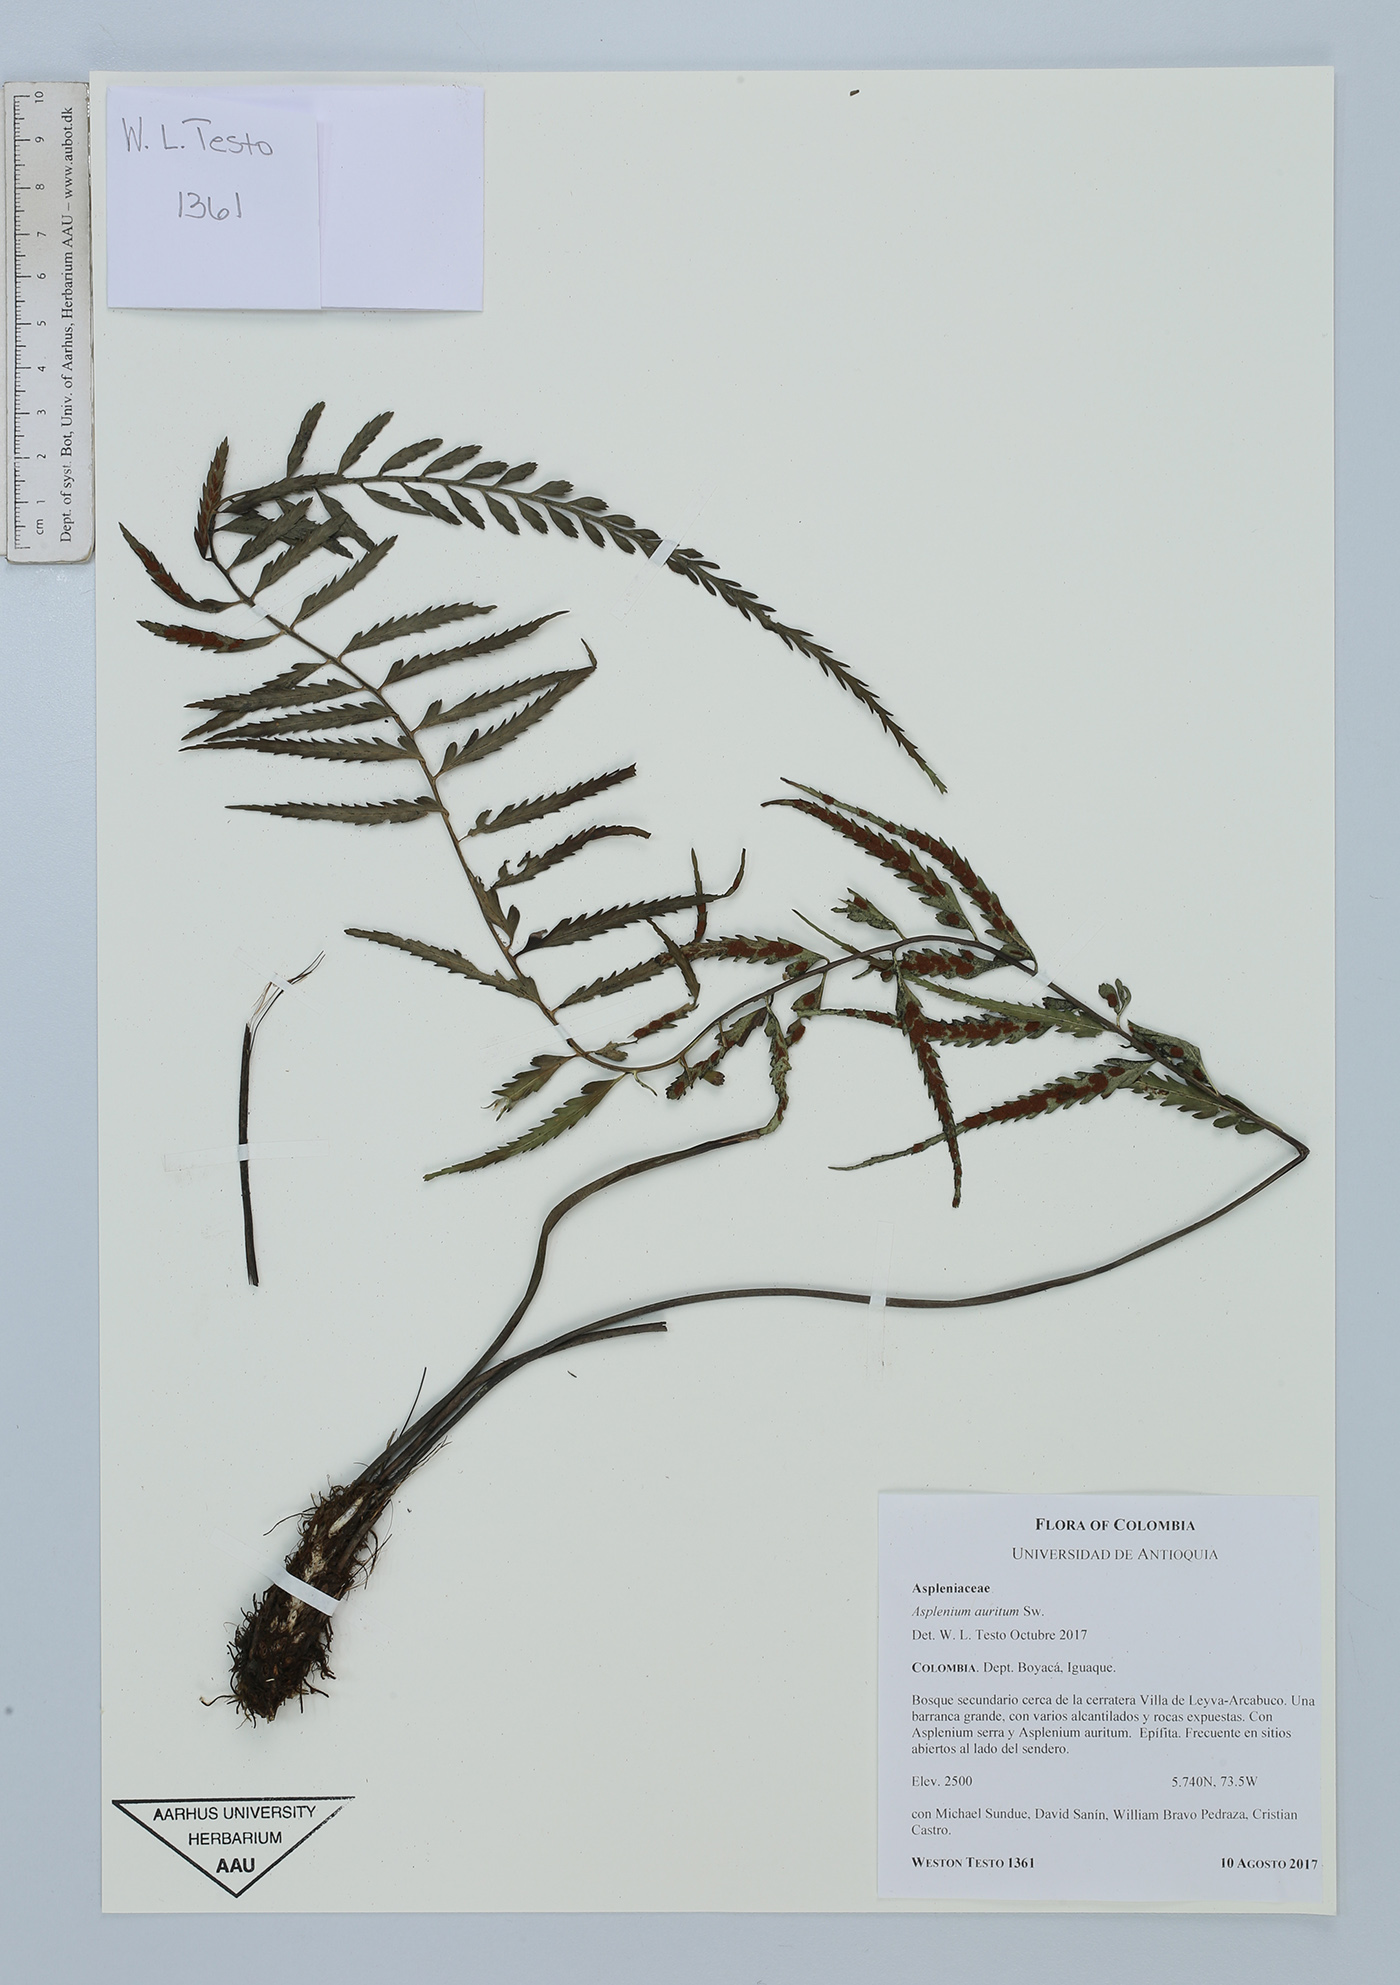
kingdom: Plantae
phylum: Tracheophyta
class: Polypodiopsida
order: Polypodiales
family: Aspleniaceae
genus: Asplenium
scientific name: Asplenium auritum
